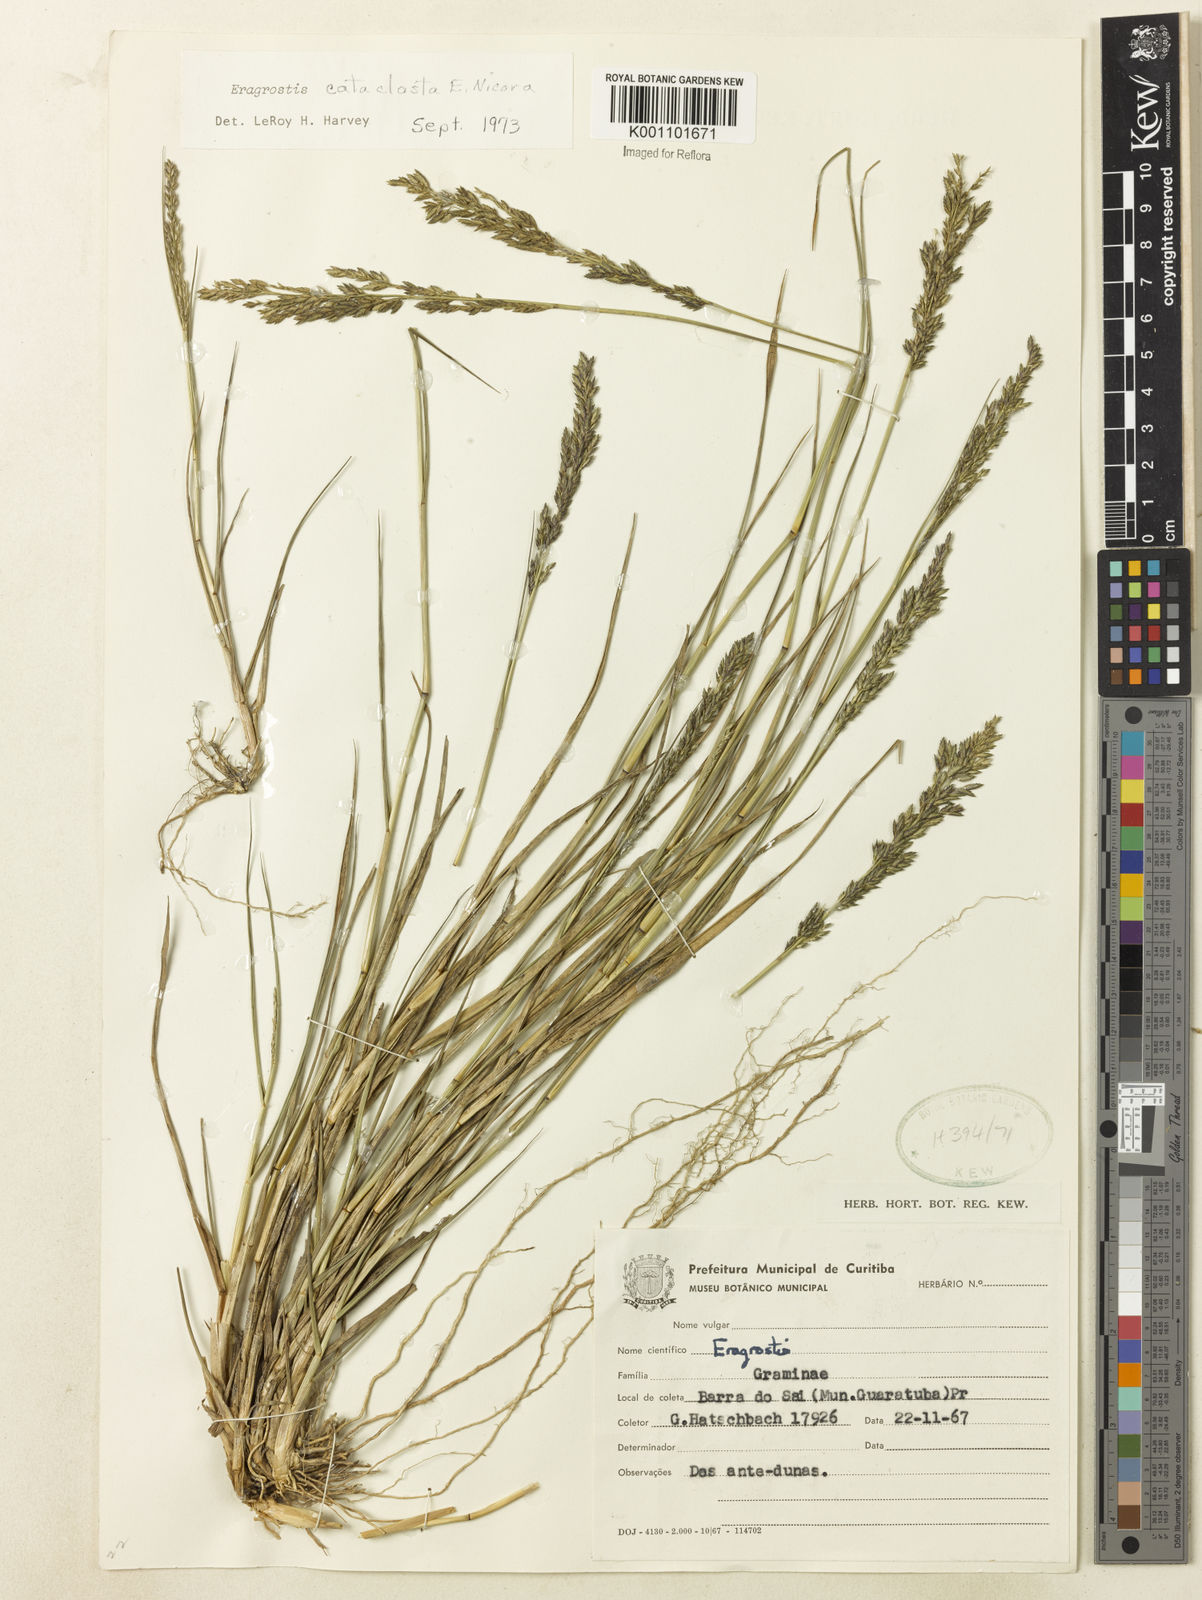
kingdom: Plantae
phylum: Tracheophyta
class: Liliopsida
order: Poales
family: Poaceae
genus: Eragrostis
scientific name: Eragrostis cataclasta
